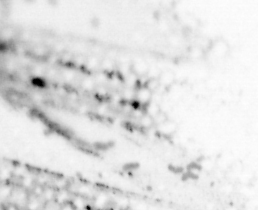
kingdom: Animalia
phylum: Chordata
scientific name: Chordata
